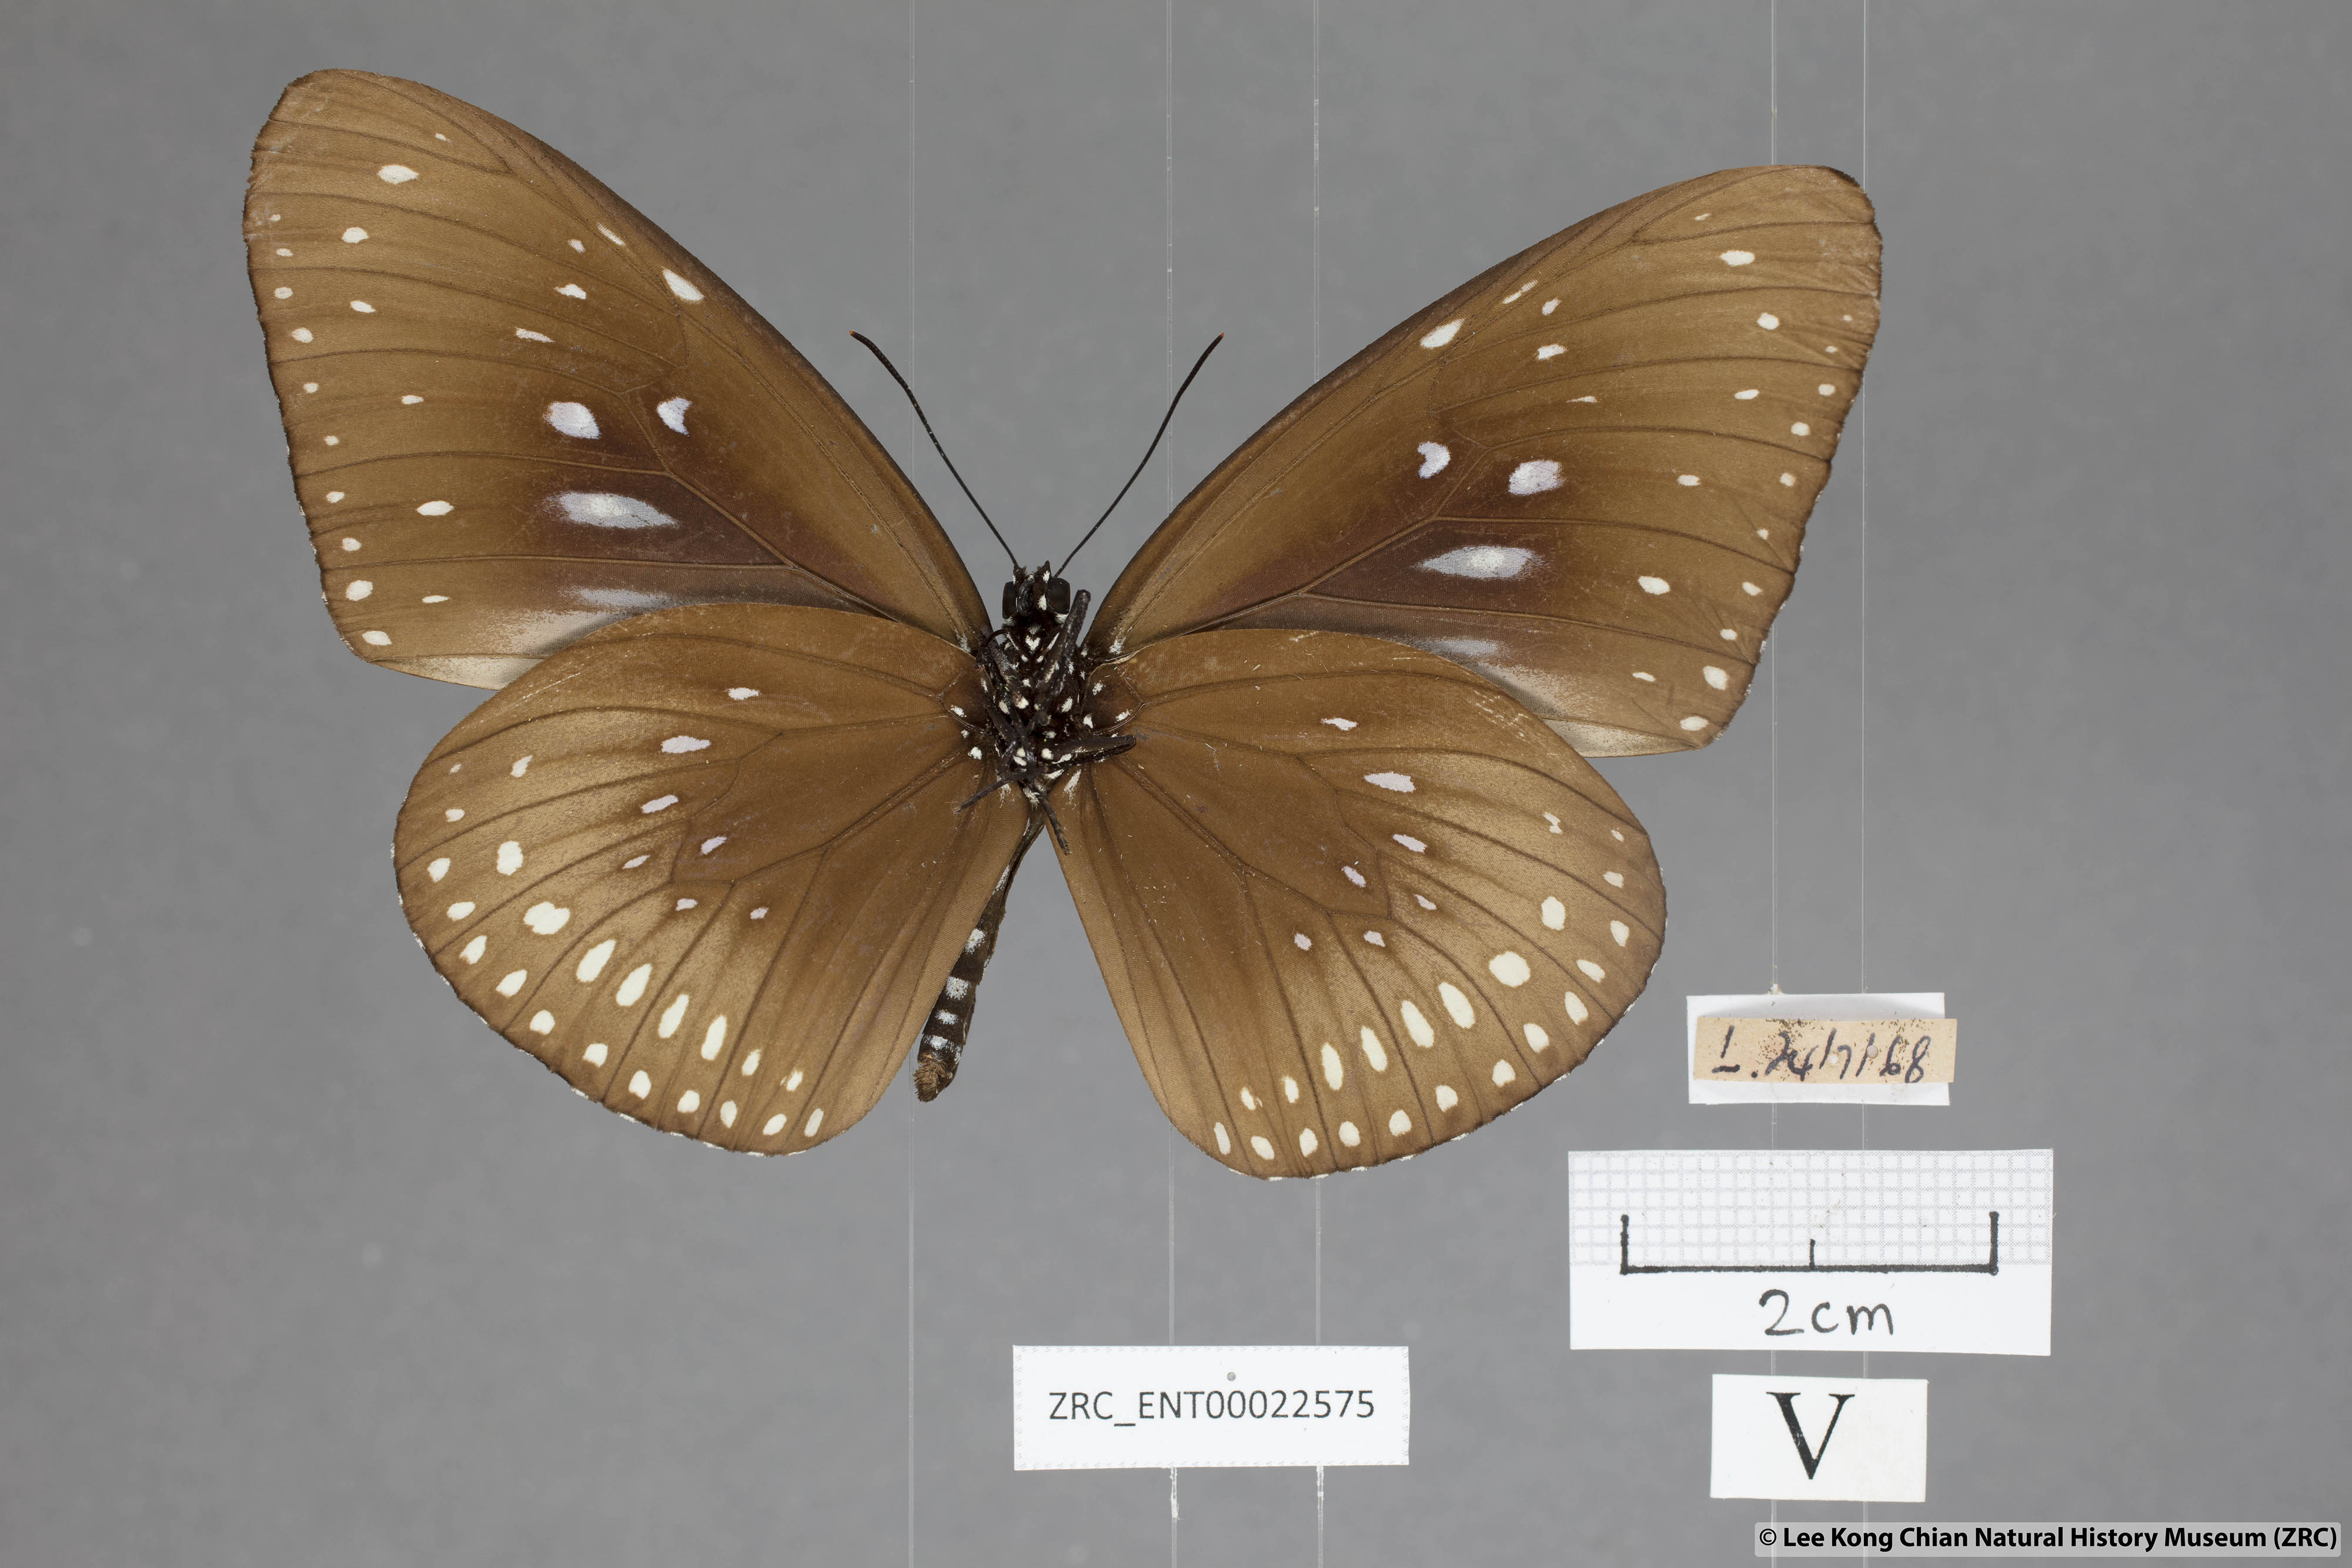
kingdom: Animalia
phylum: Arthropoda
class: Insecta
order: Lepidoptera
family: Nymphalidae
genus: Euploea
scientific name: Euploea midamus
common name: Blue-spotted crow butterfly
